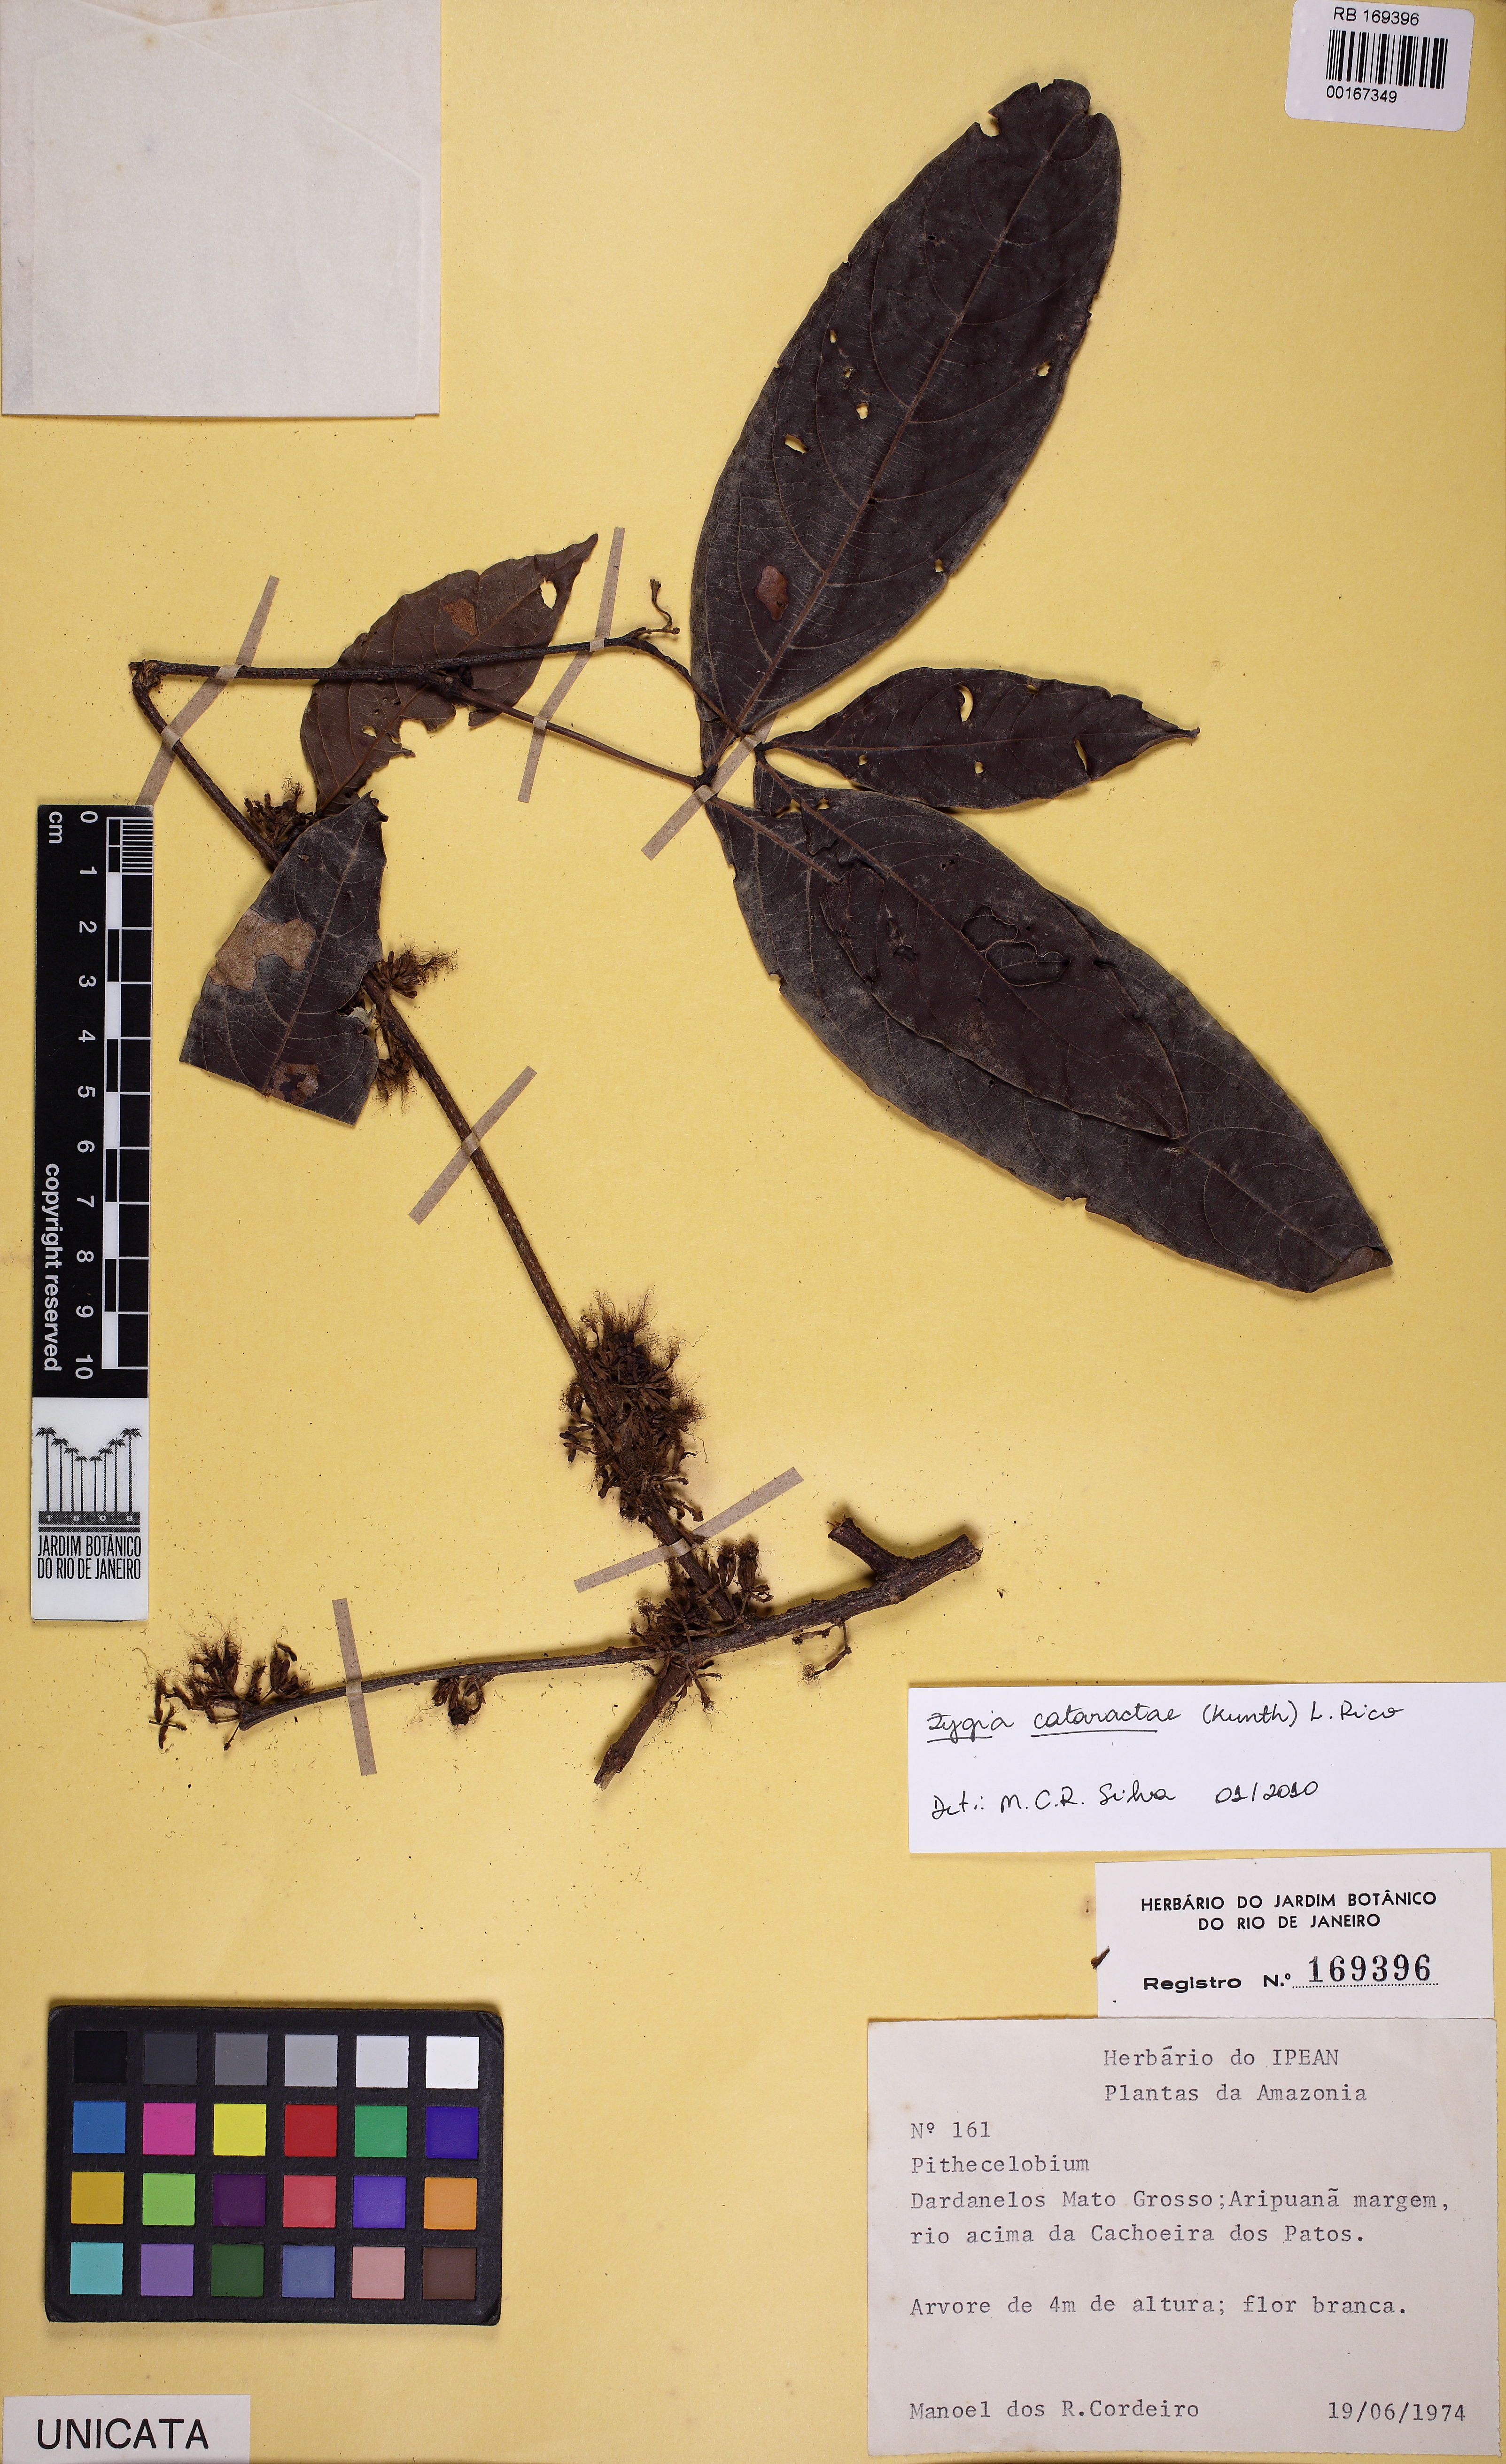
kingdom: Plantae
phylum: Tracheophyta
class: Magnoliopsida
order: Fabales
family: Fabaceae
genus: Zygia
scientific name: Zygia cataractae
